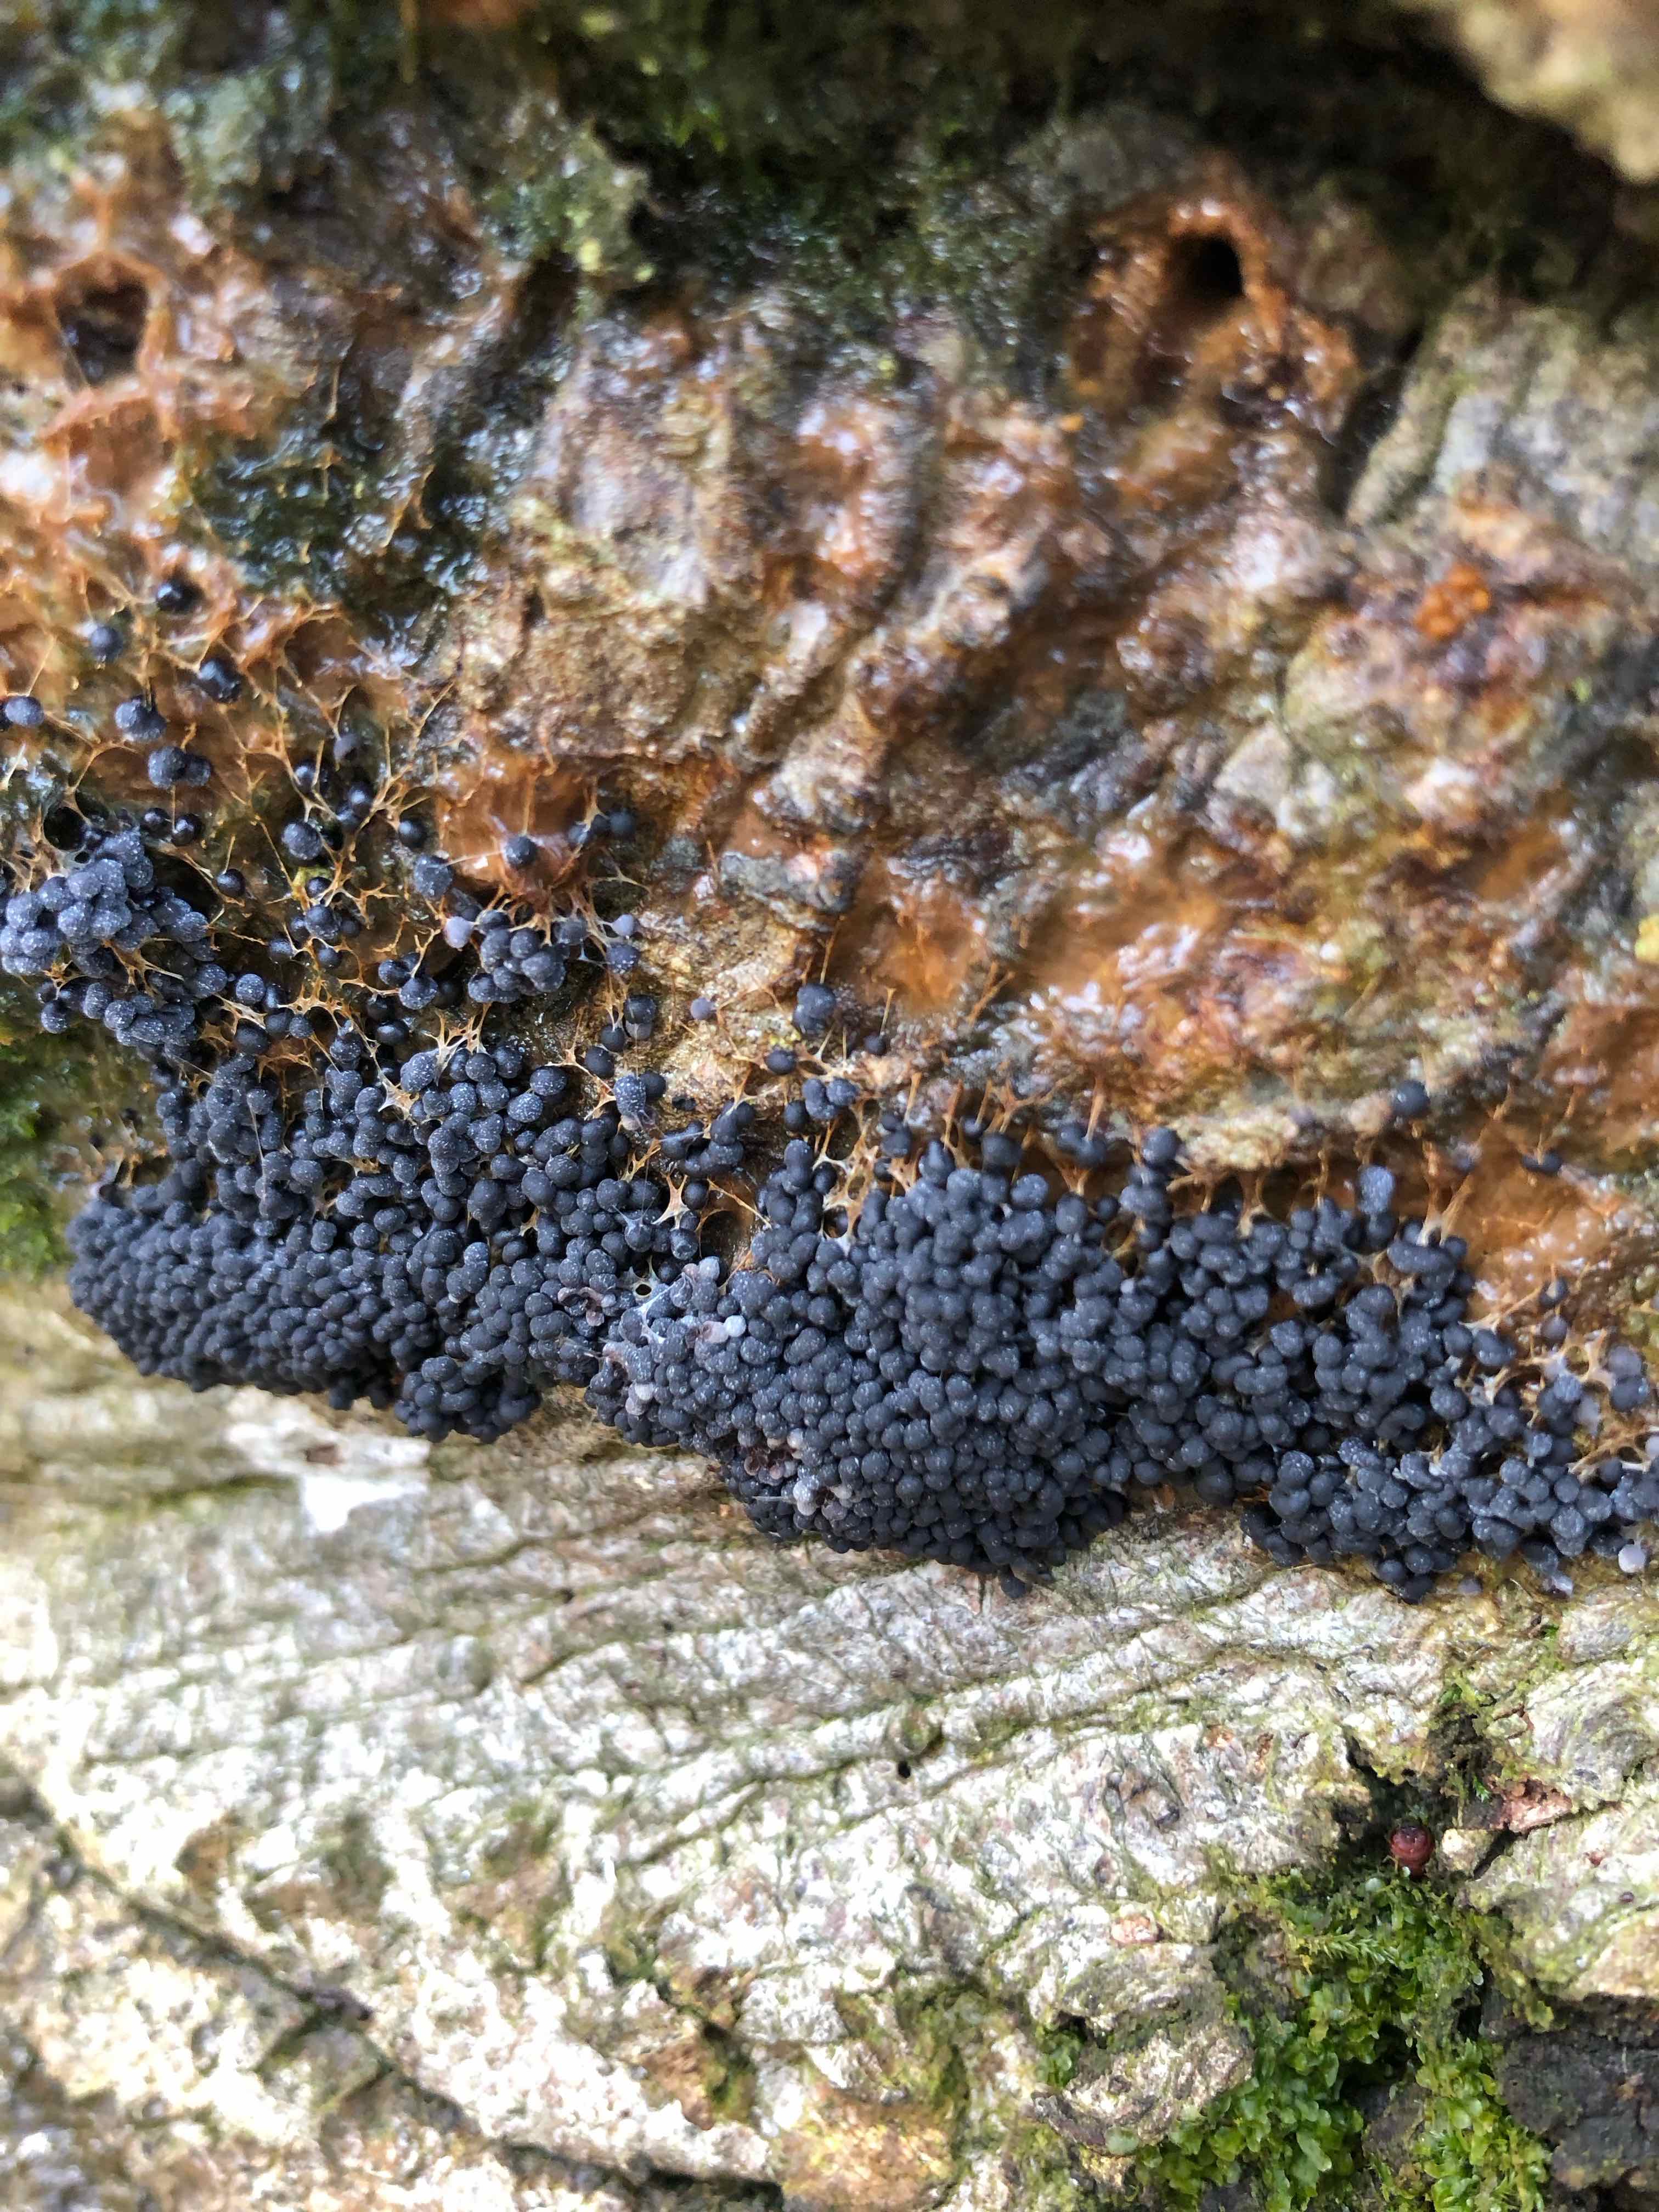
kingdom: Protozoa
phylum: Mycetozoa
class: Myxomycetes
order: Physarales
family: Physaraceae
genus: Badhamia
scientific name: Badhamia utricularis
